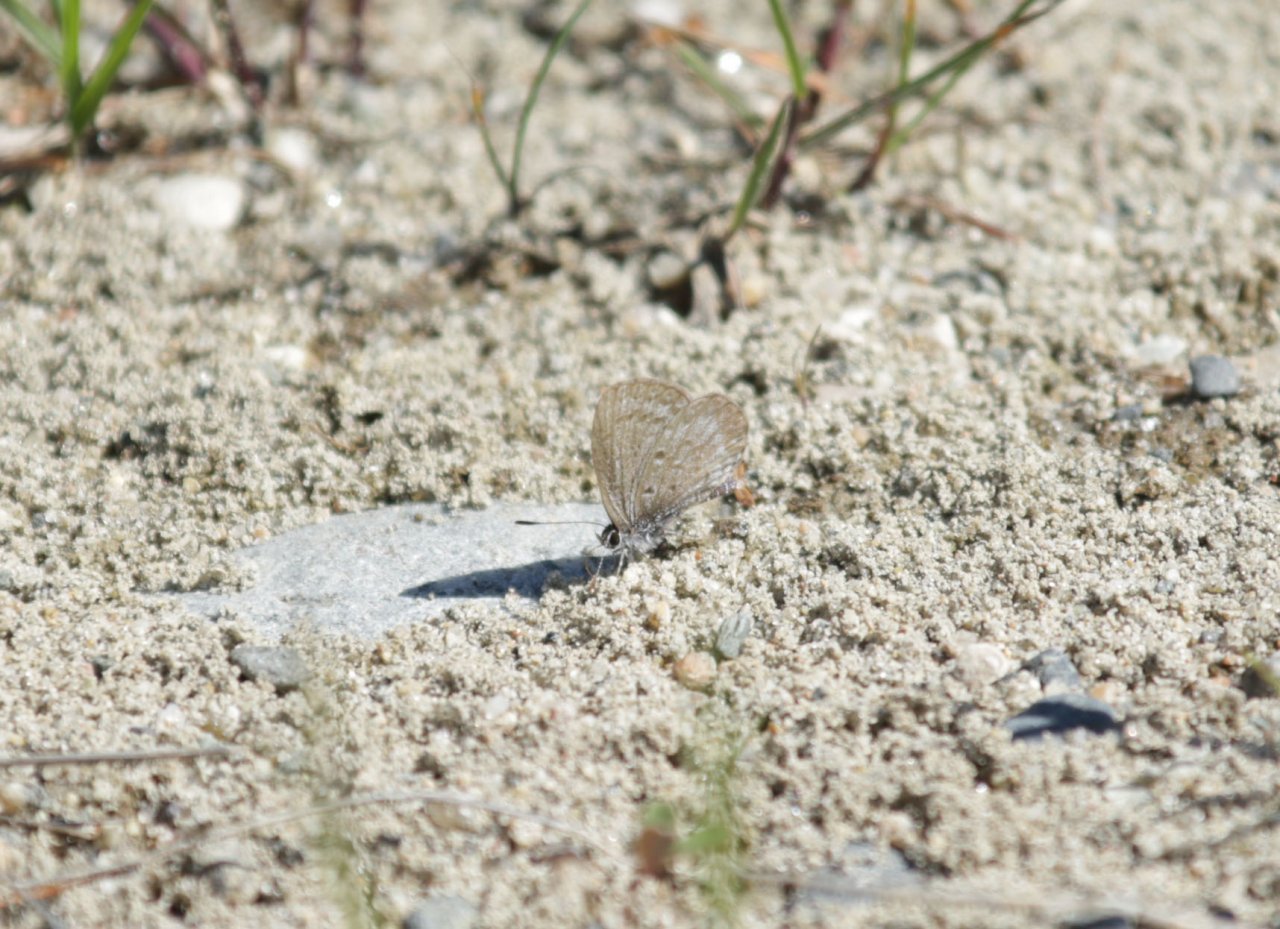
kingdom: Animalia
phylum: Arthropoda
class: Insecta
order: Lepidoptera
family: Lycaenidae
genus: Celastrina
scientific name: Celastrina lucia
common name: Northern Spring Azure
